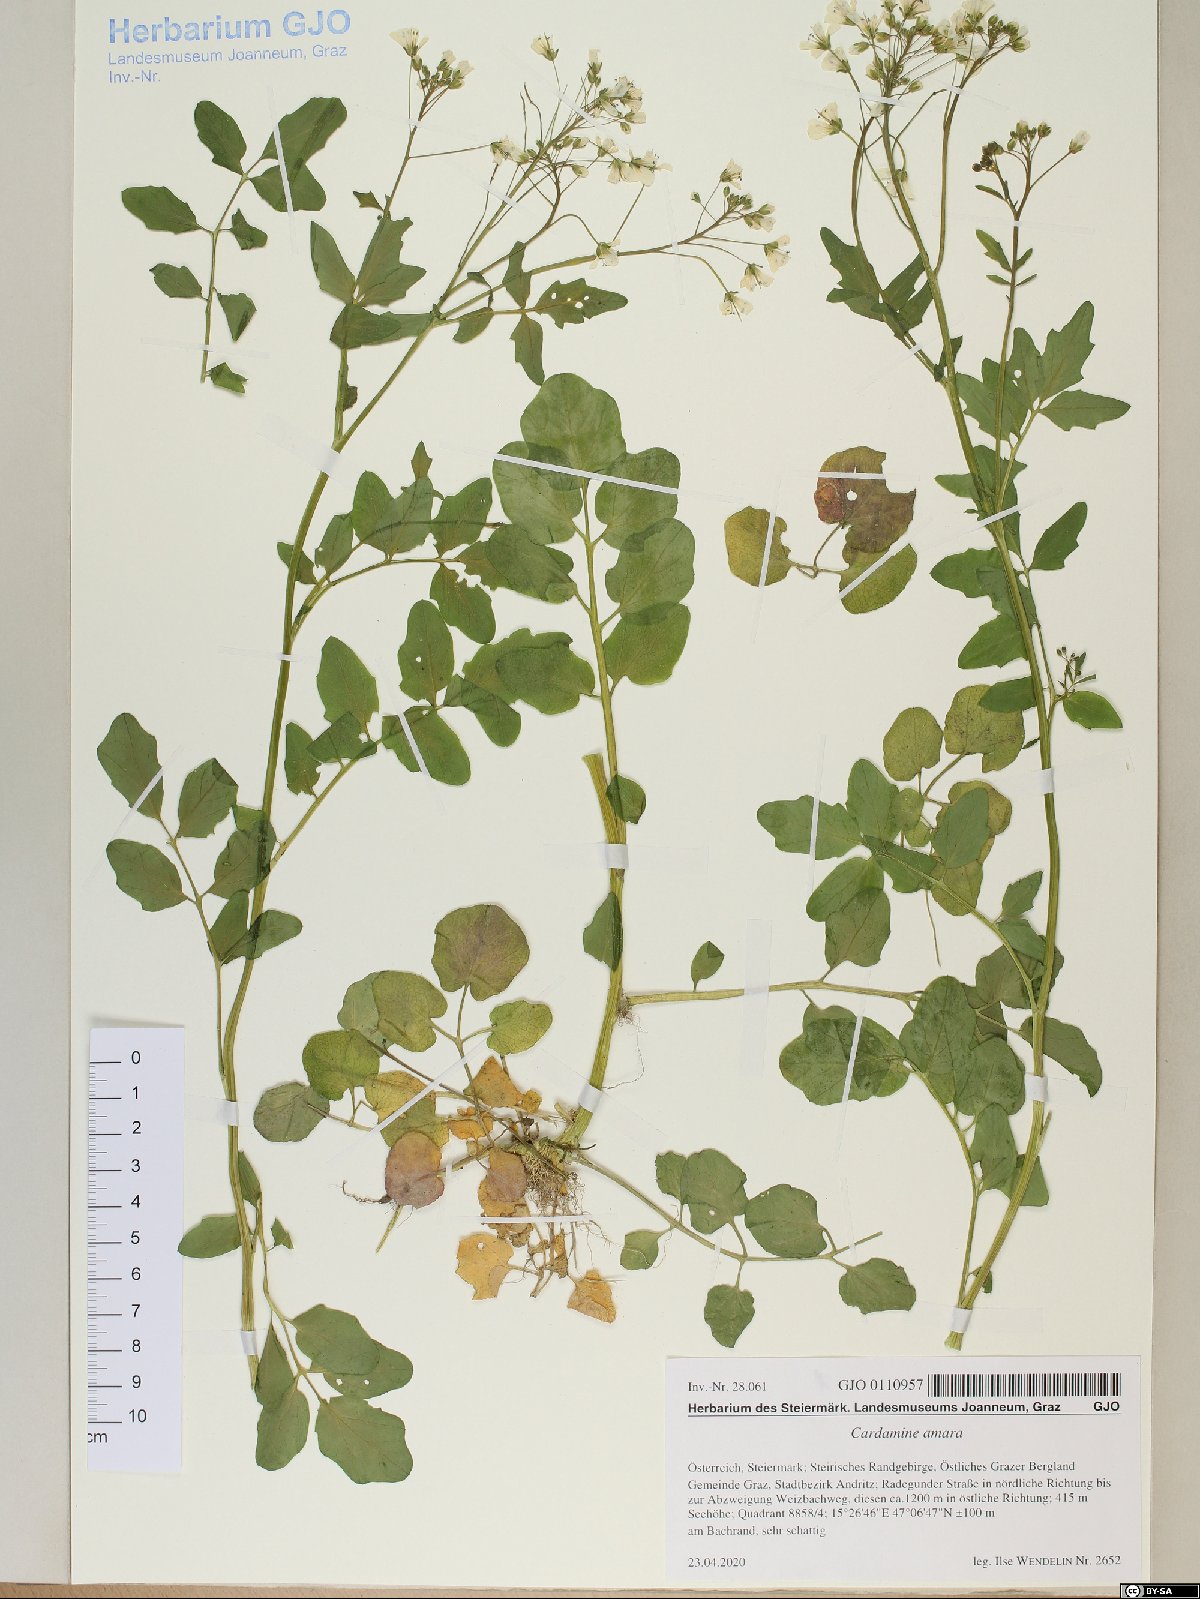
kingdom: Plantae
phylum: Tracheophyta
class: Magnoliopsida
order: Brassicales
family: Brassicaceae
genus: Cardamine
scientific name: Cardamine amara
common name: Large bitter-cress
